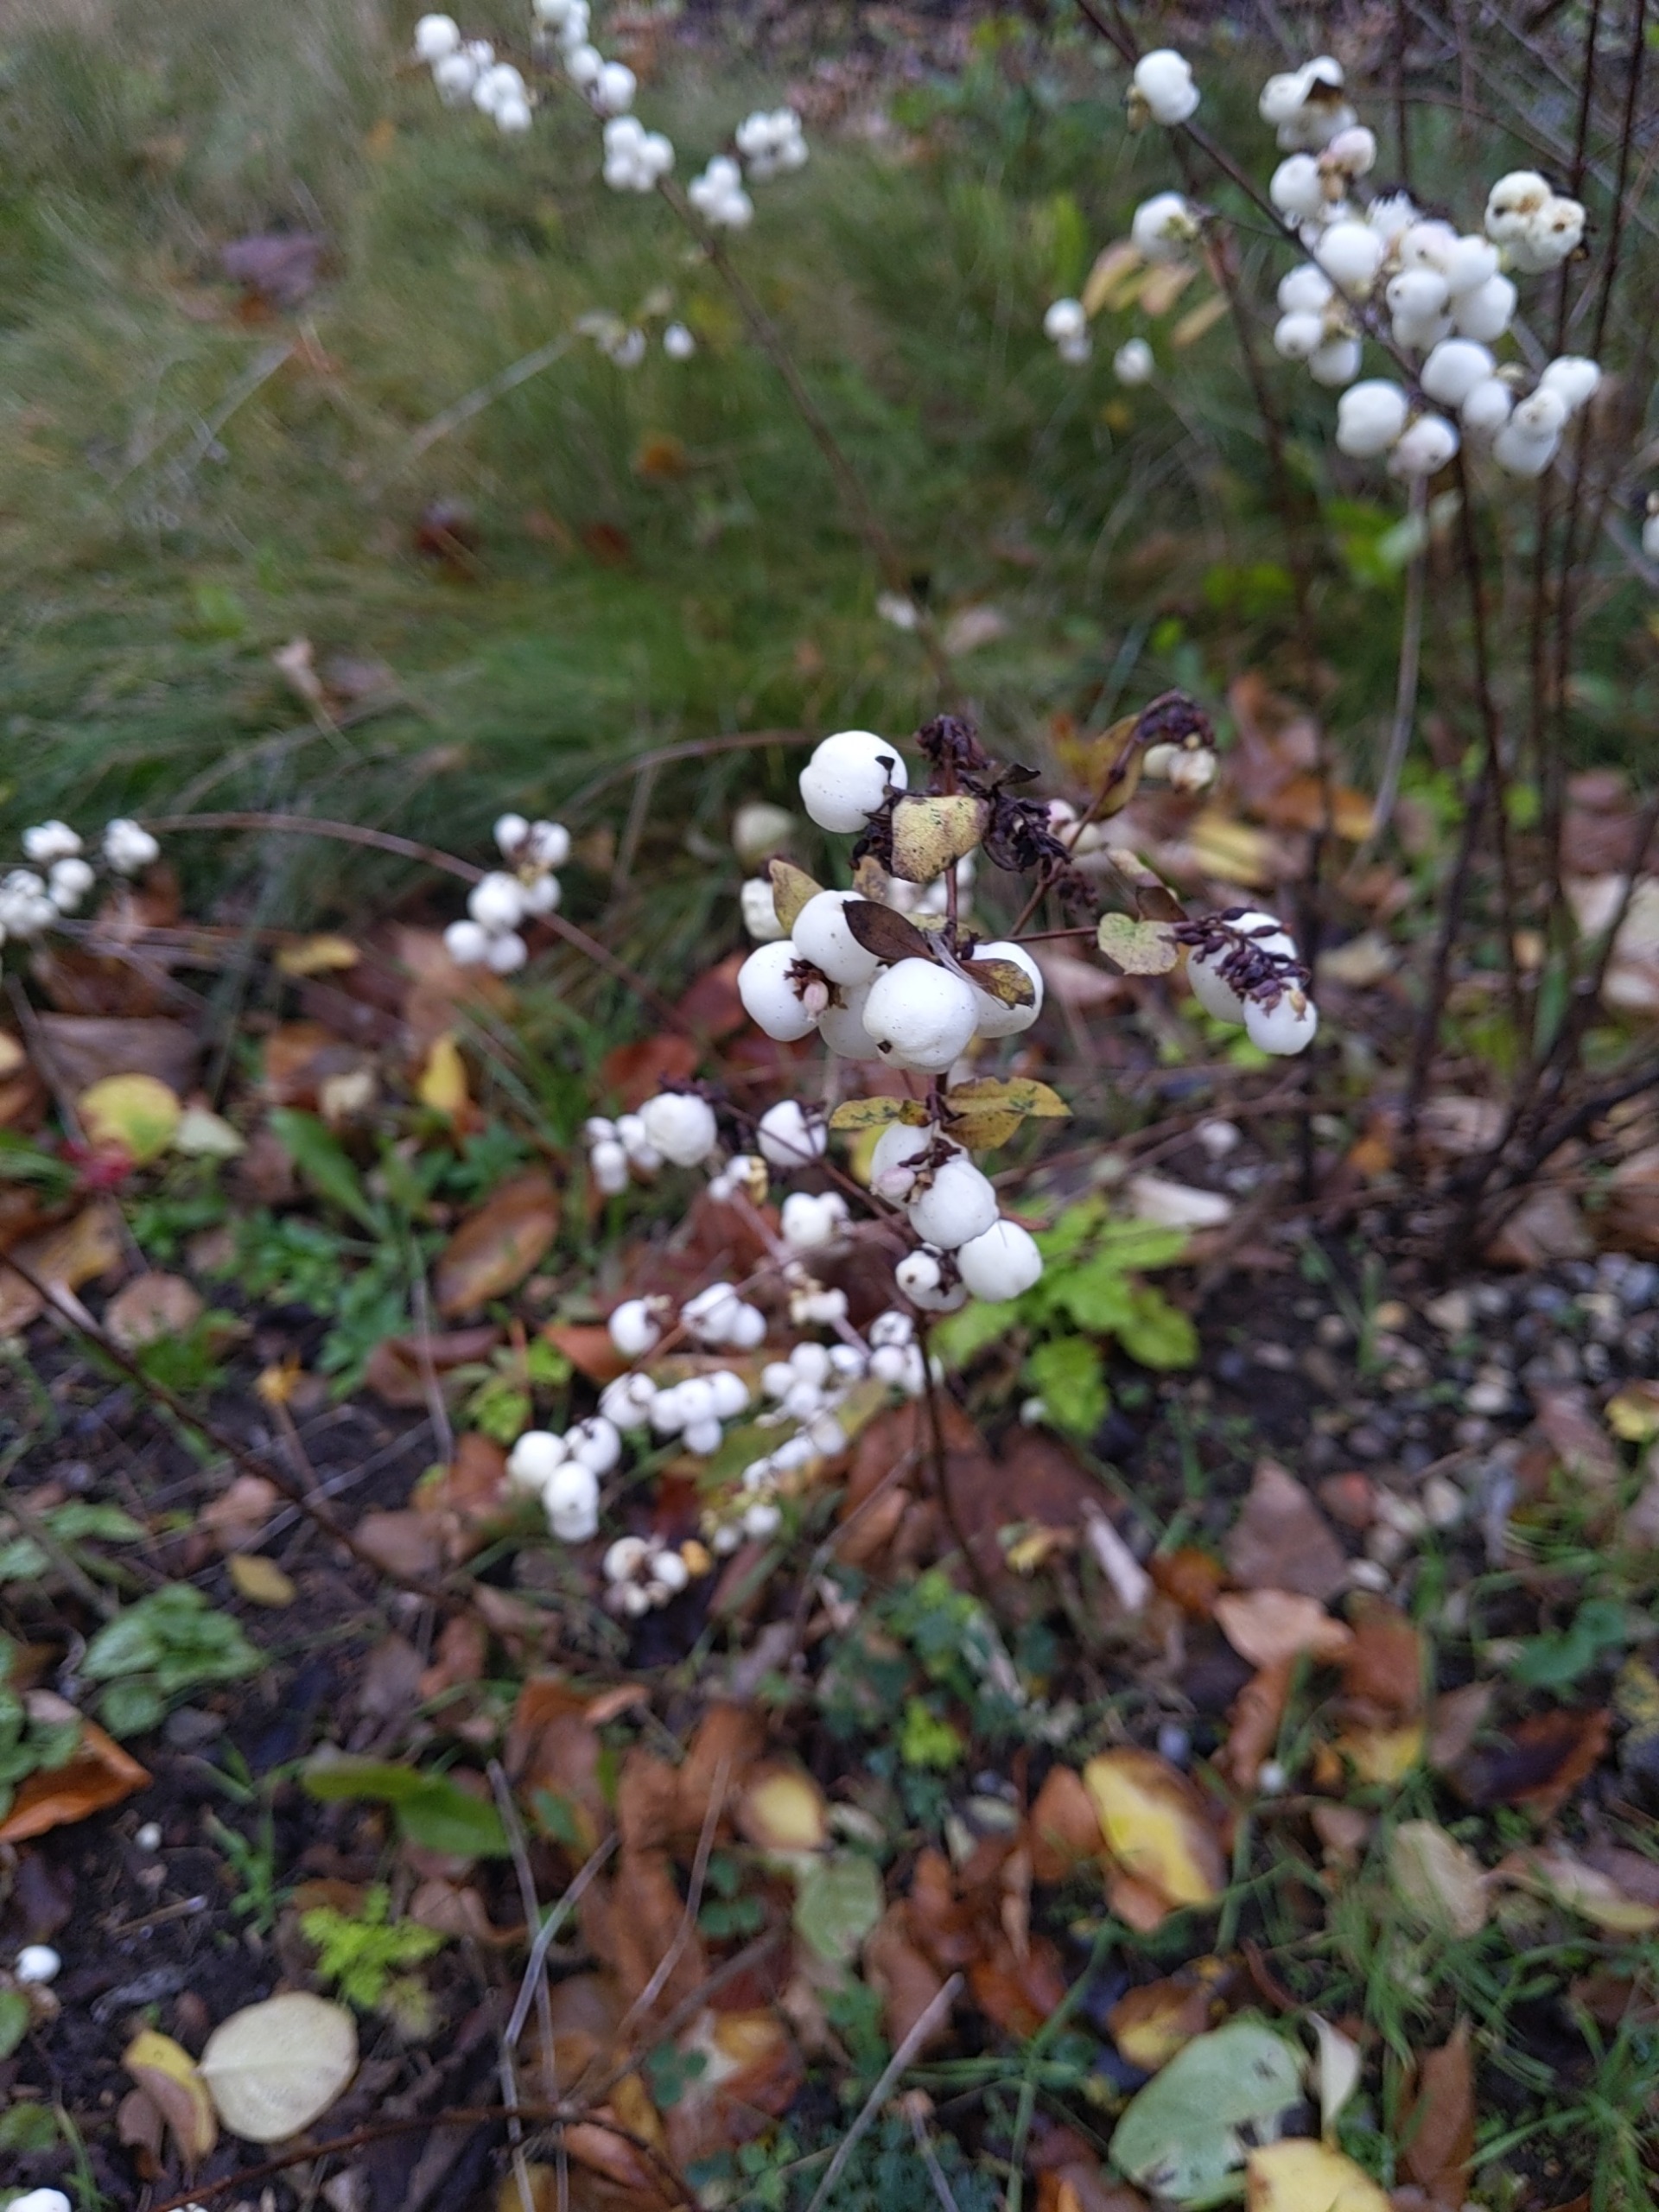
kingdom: Plantae
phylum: Tracheophyta
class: Magnoliopsida
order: Dipsacales
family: Caprifoliaceae
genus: Symphoricarpos
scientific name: Symphoricarpos albus
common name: Almindelig snebær
